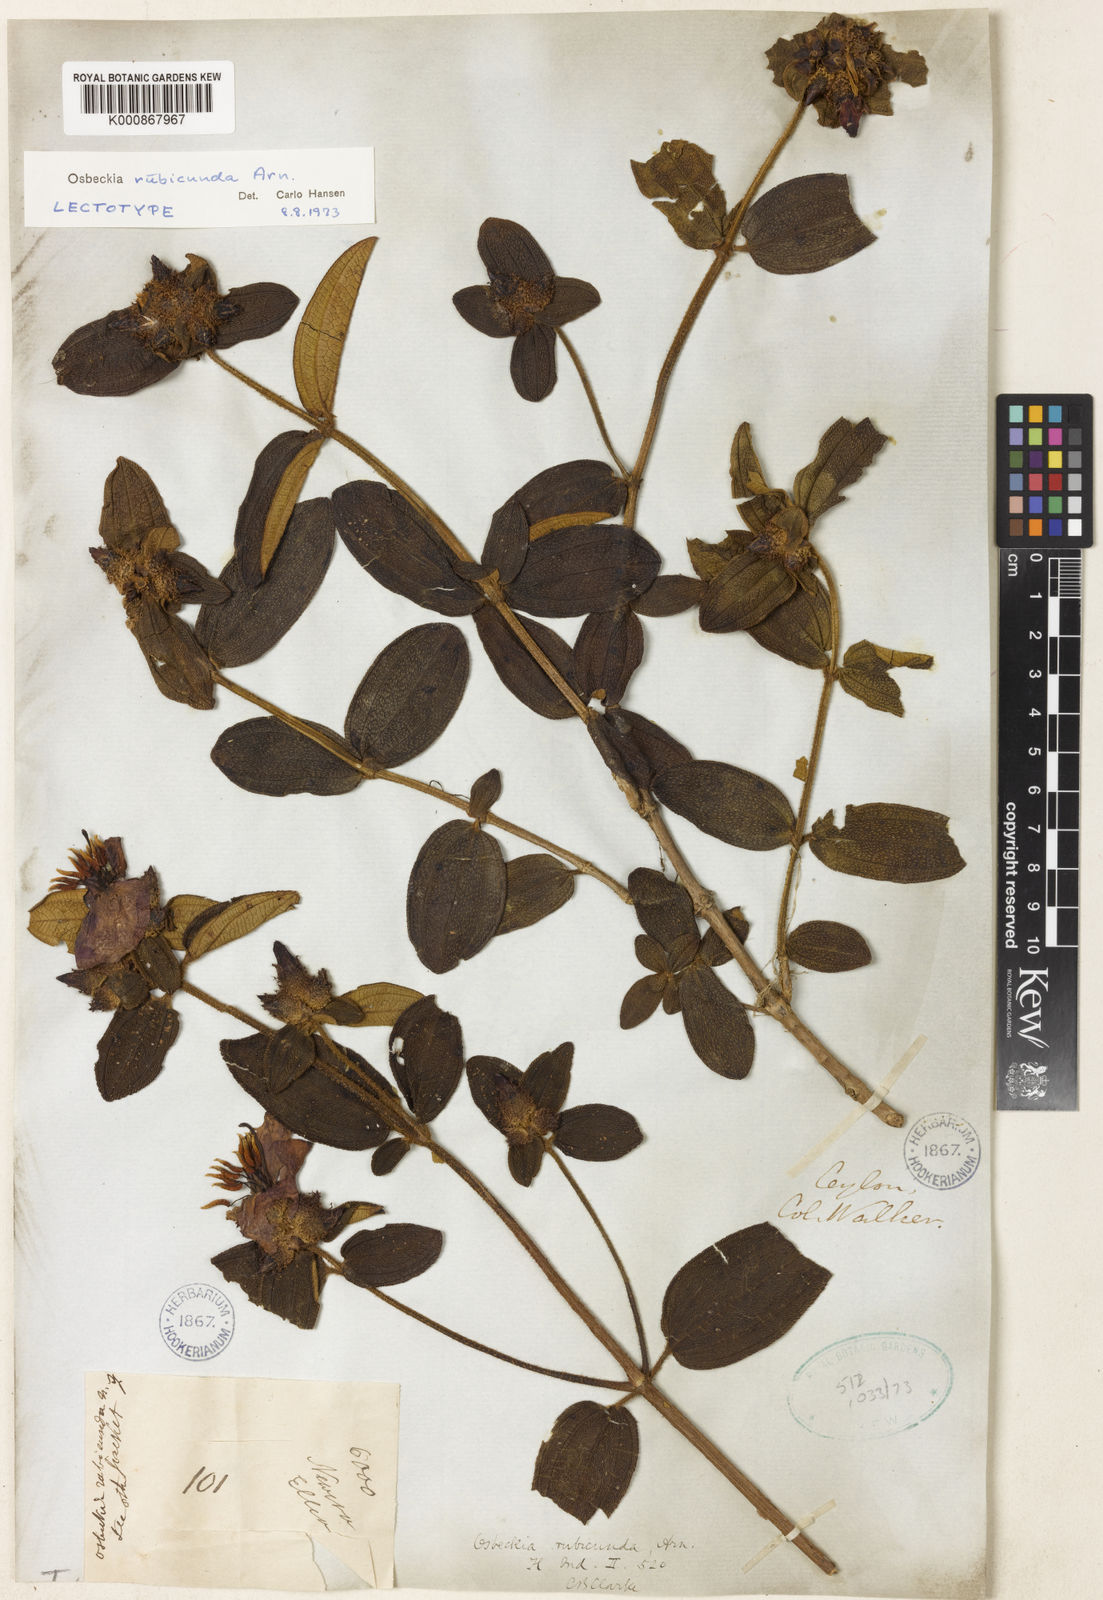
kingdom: Plantae
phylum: Tracheophyta
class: Magnoliopsida
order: Myrtales
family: Melastomataceae
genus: Osbeckia
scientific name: Osbeckia rubicunda
